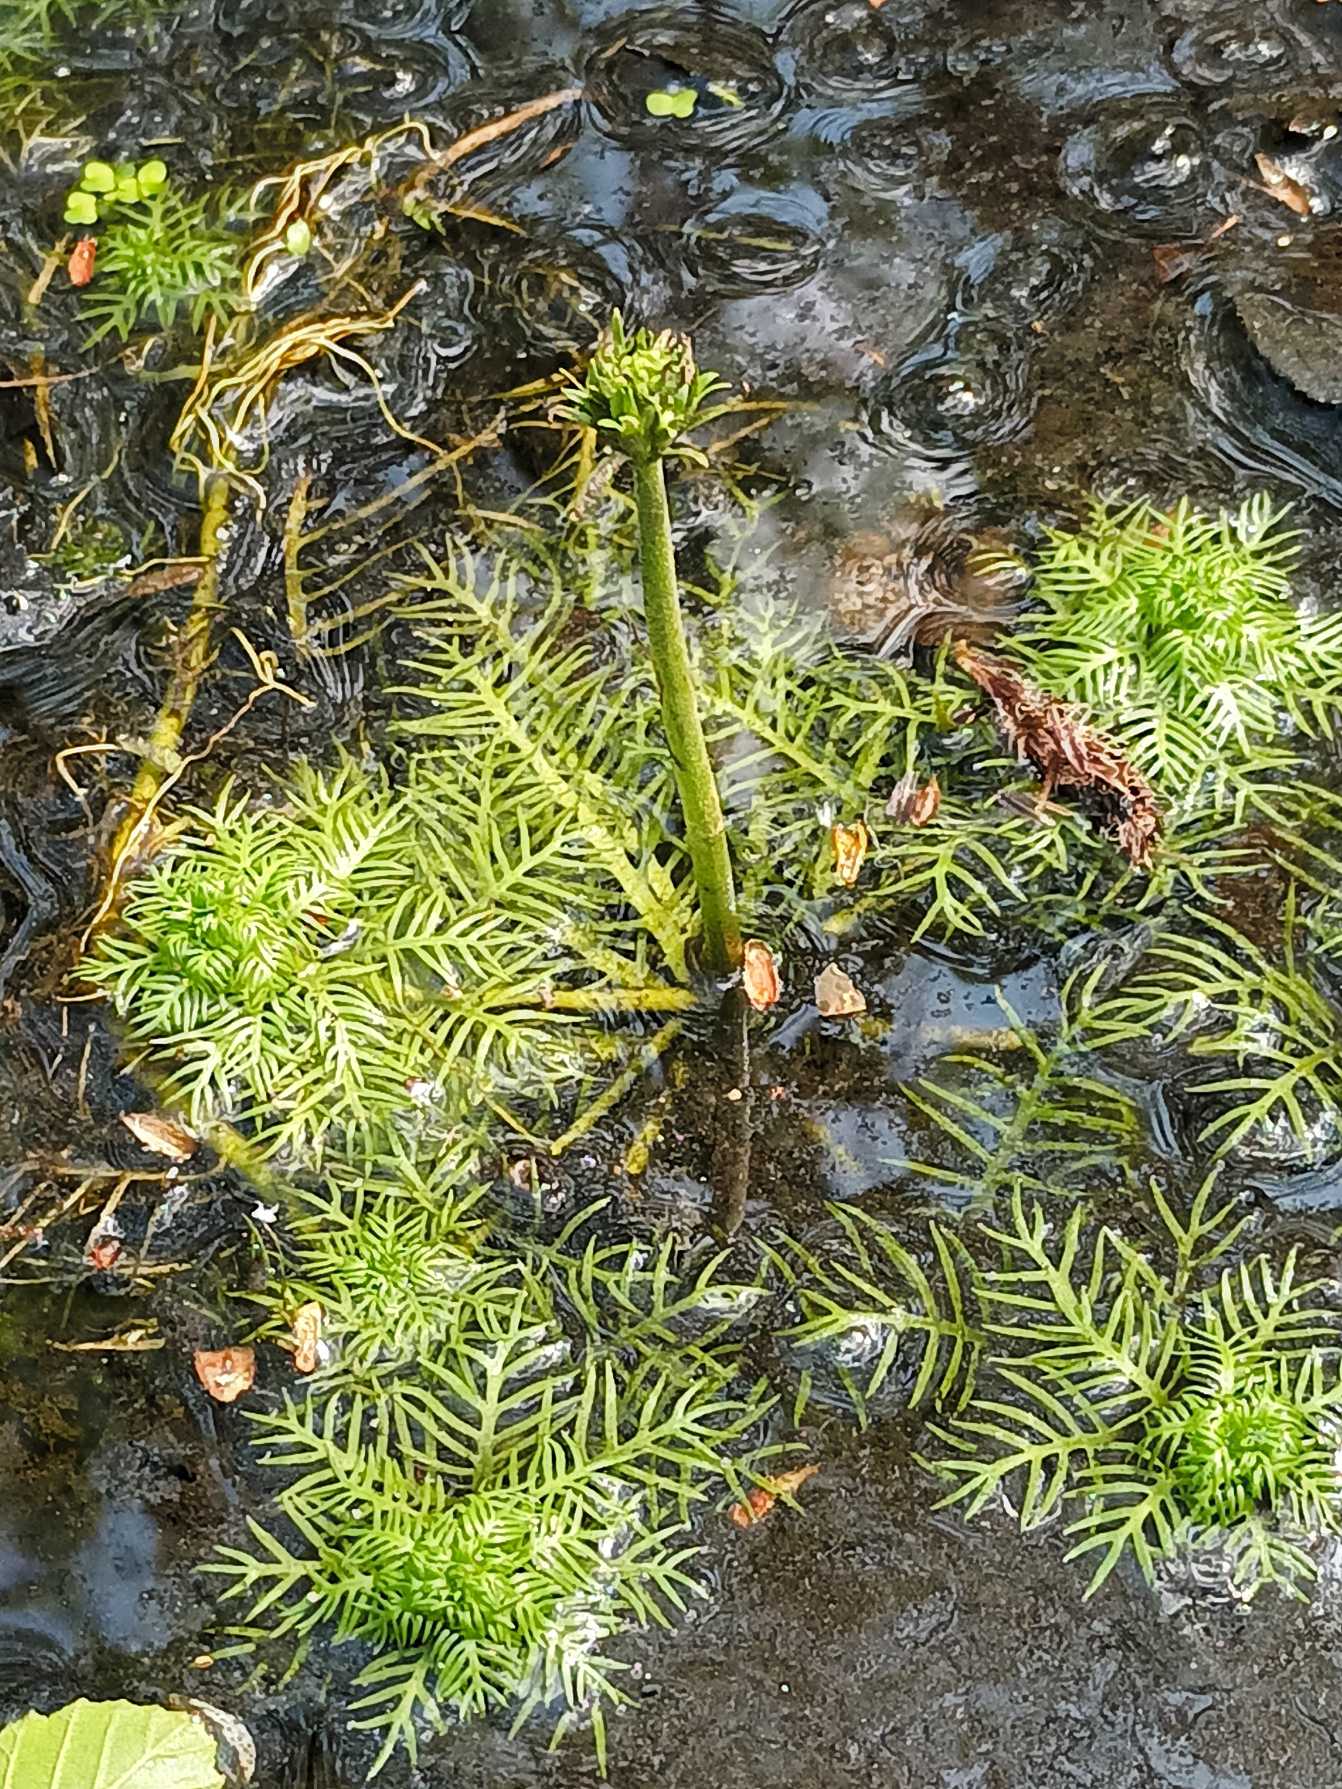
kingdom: Plantae
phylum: Tracheophyta
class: Magnoliopsida
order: Ericales
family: Primulaceae
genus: Hottonia
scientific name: Hottonia palustris
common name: Vandrøllike
